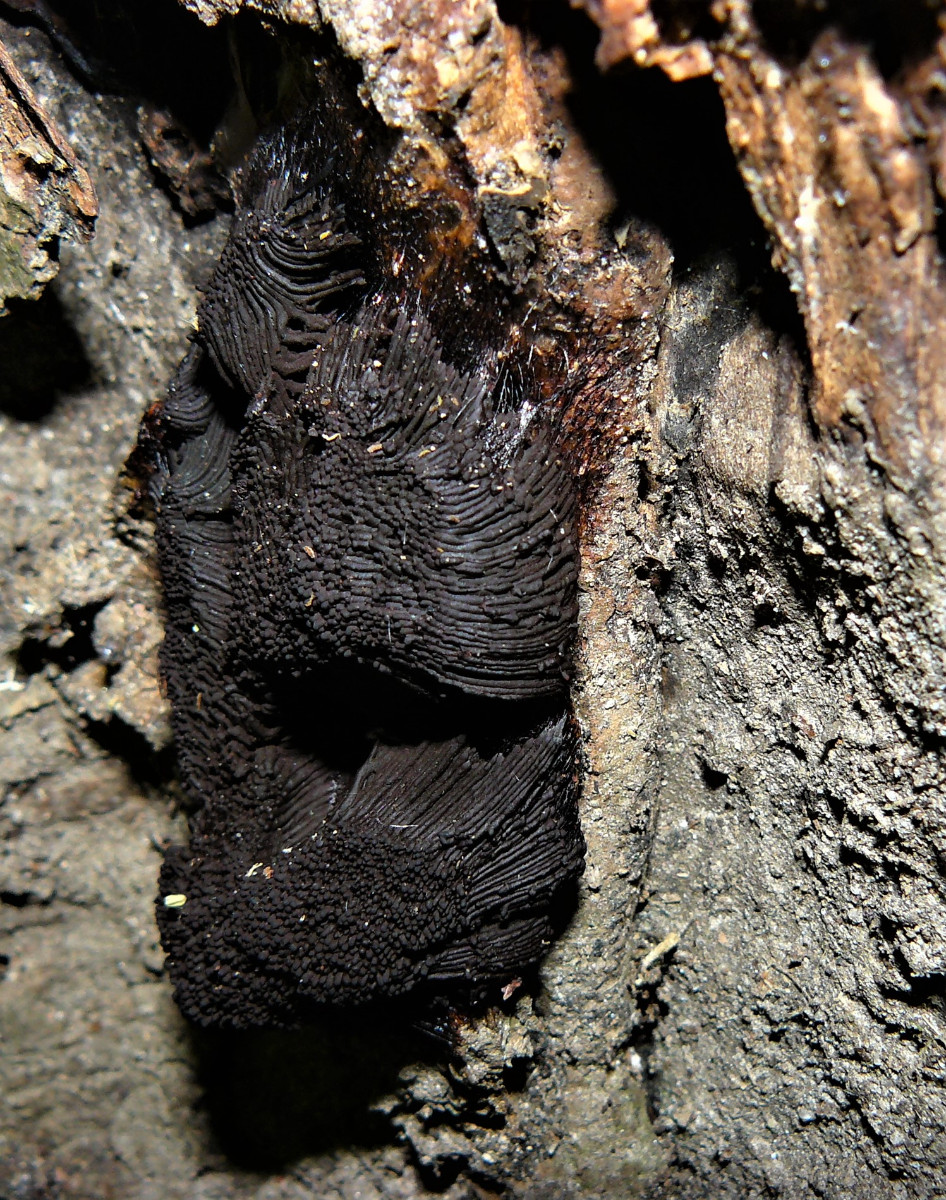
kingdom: Protozoa
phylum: Mycetozoa
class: Myxomycetes
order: Stemonitidales
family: Stemonitidaceae
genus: Stemonitis
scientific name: Stemonitis
